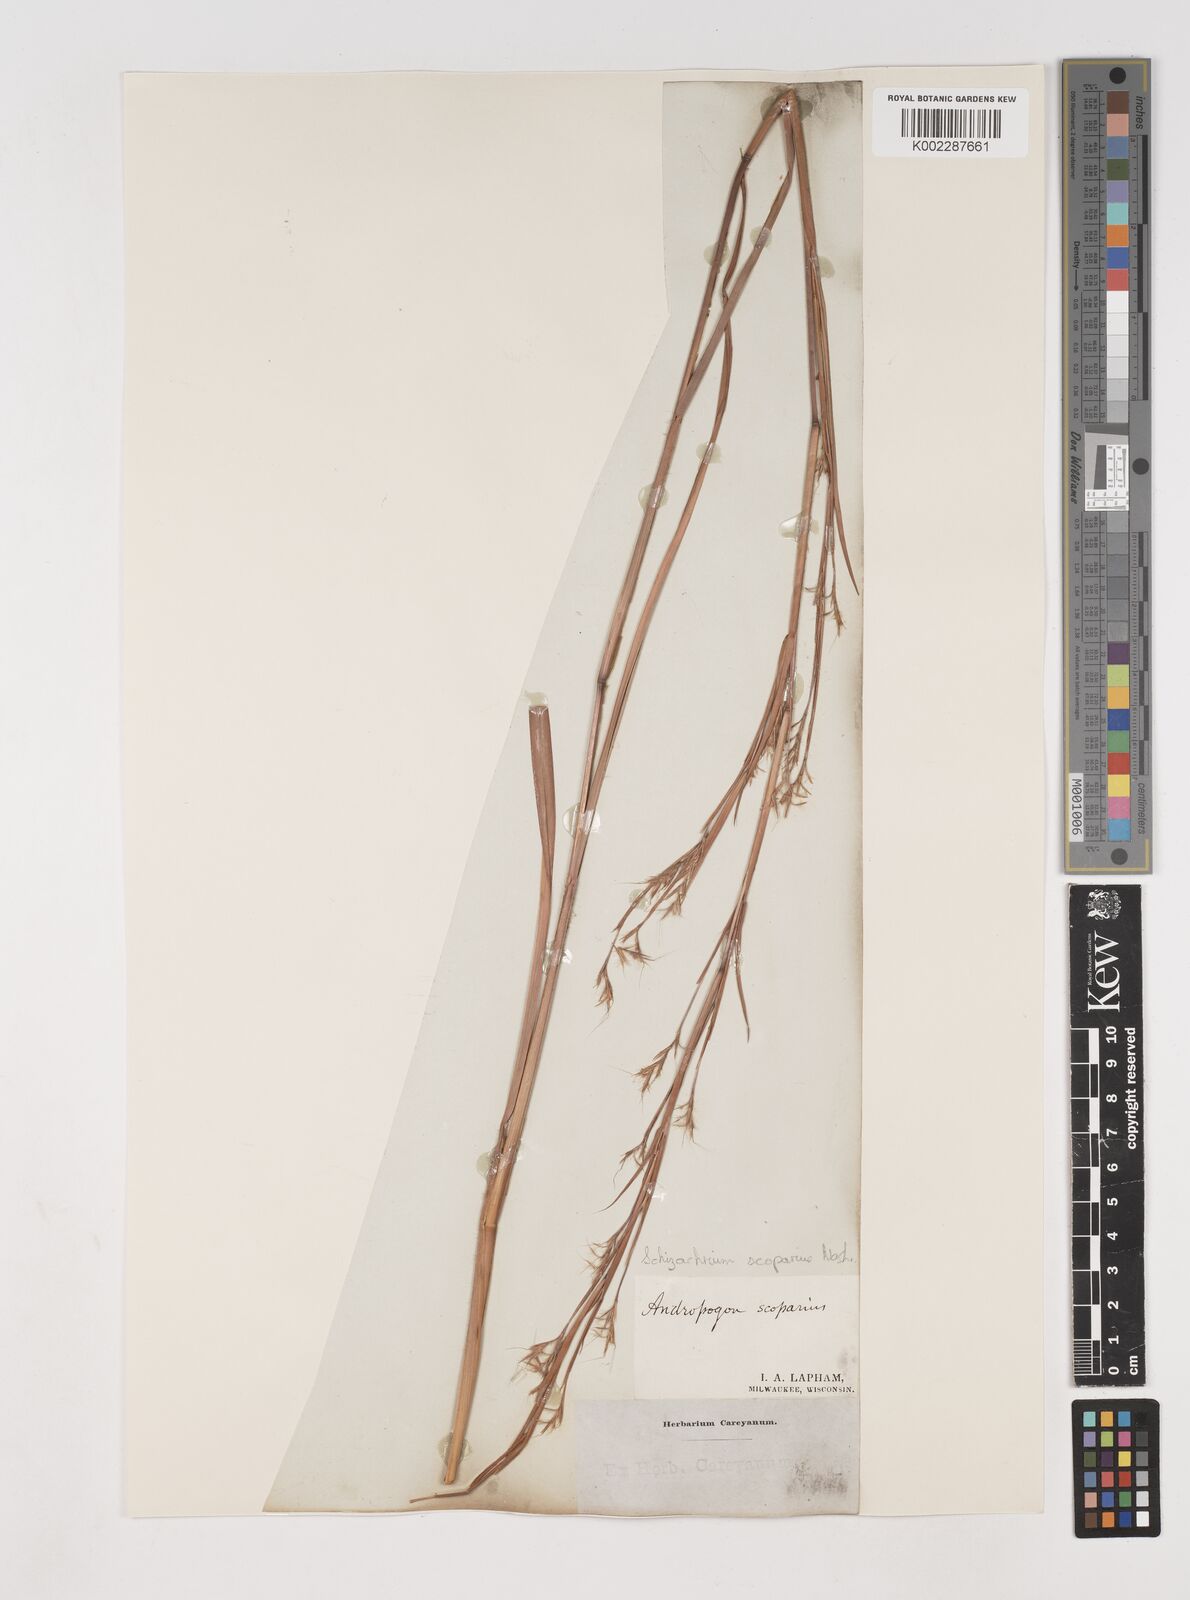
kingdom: Plantae
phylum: Tracheophyta
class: Liliopsida
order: Poales
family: Poaceae
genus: Schizachyrium
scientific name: Schizachyrium scoparium
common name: Little bluestem
